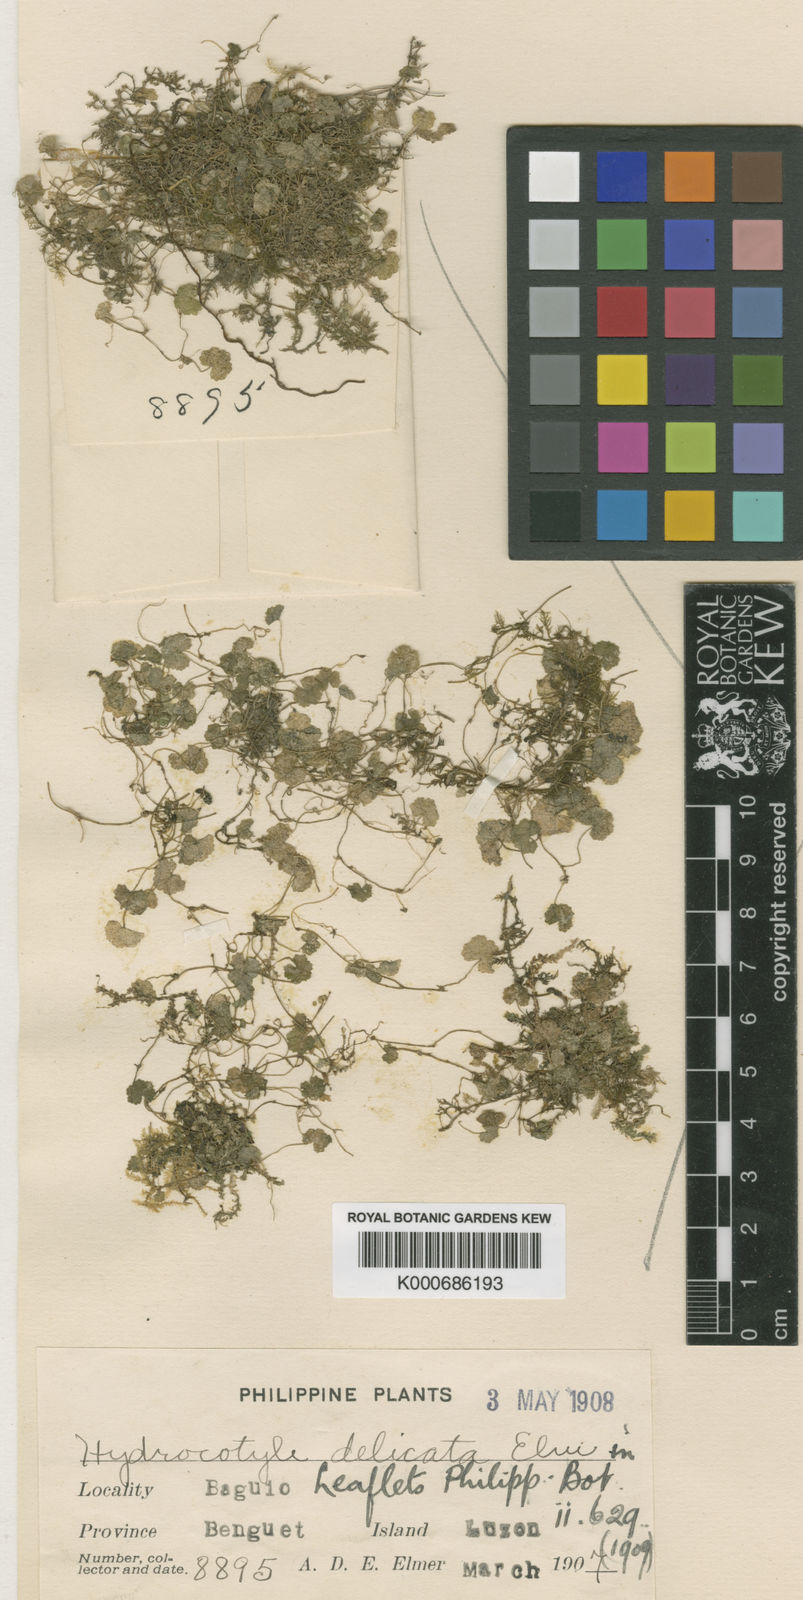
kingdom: Plantae
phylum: Tracheophyta
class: Magnoliopsida
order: Apiales
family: Araliaceae
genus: Hydrocotyle
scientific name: Hydrocotyle sibthorpioides
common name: Lawn marshpennywort
